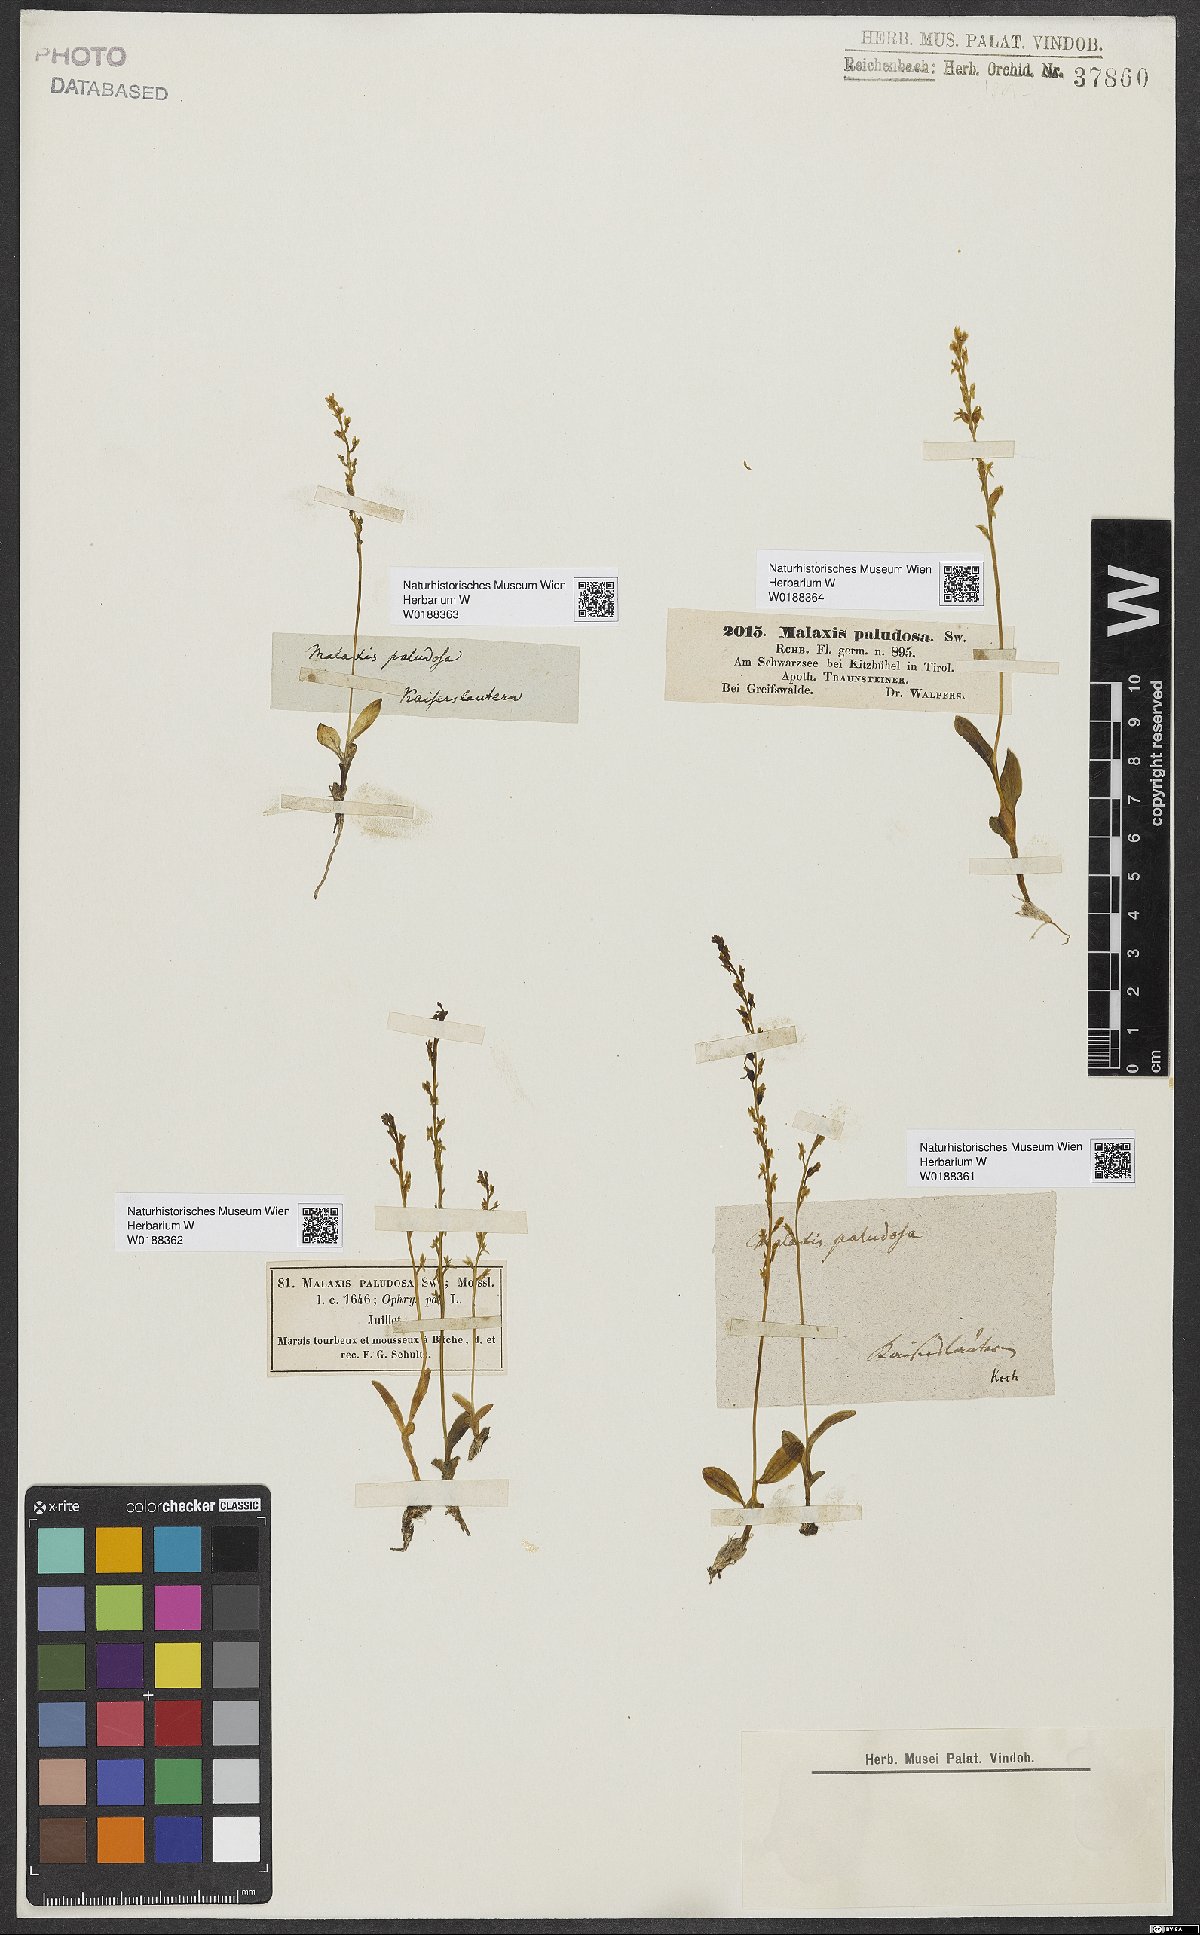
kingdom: Plantae
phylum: Tracheophyta
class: Liliopsida
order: Asparagales
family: Orchidaceae
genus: Hammarbya
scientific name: Hammarbya paludosa
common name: Bog orchid
